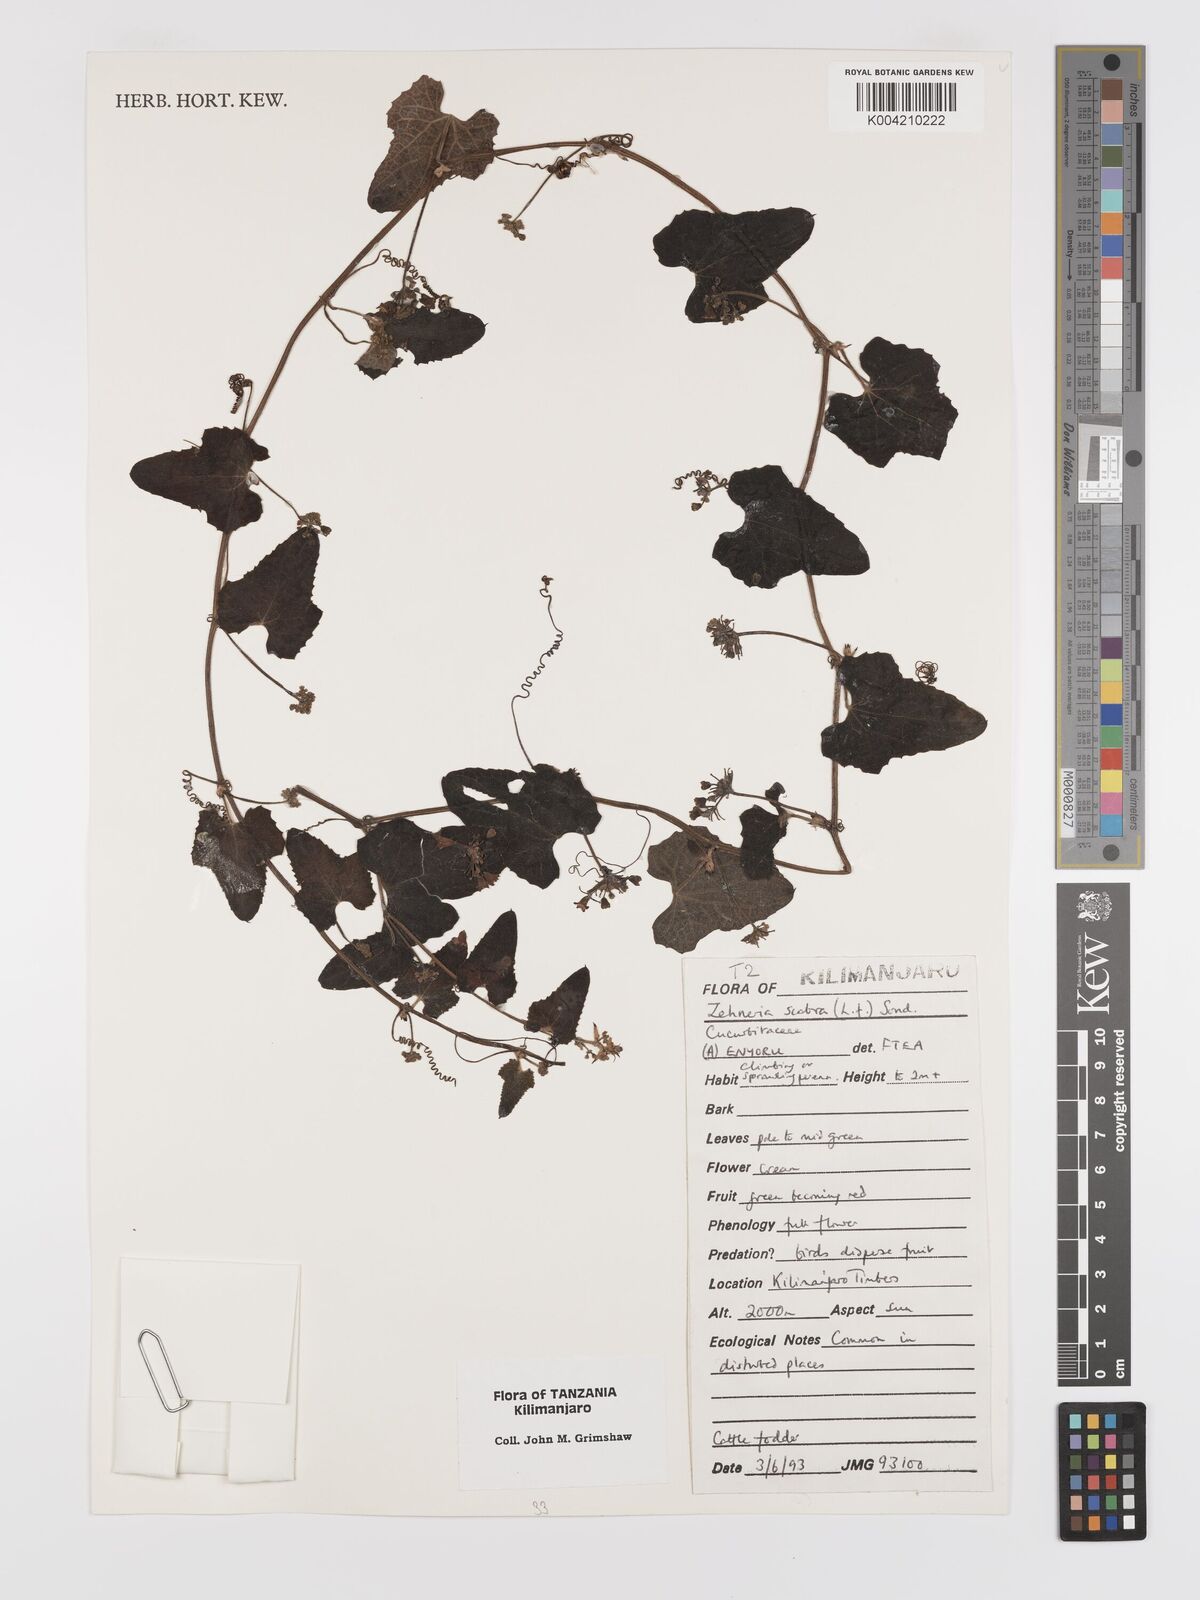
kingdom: Plantae
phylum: Tracheophyta
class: Magnoliopsida
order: Cucurbitales
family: Cucurbitaceae
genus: Zehneria
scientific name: Zehneria scabra
